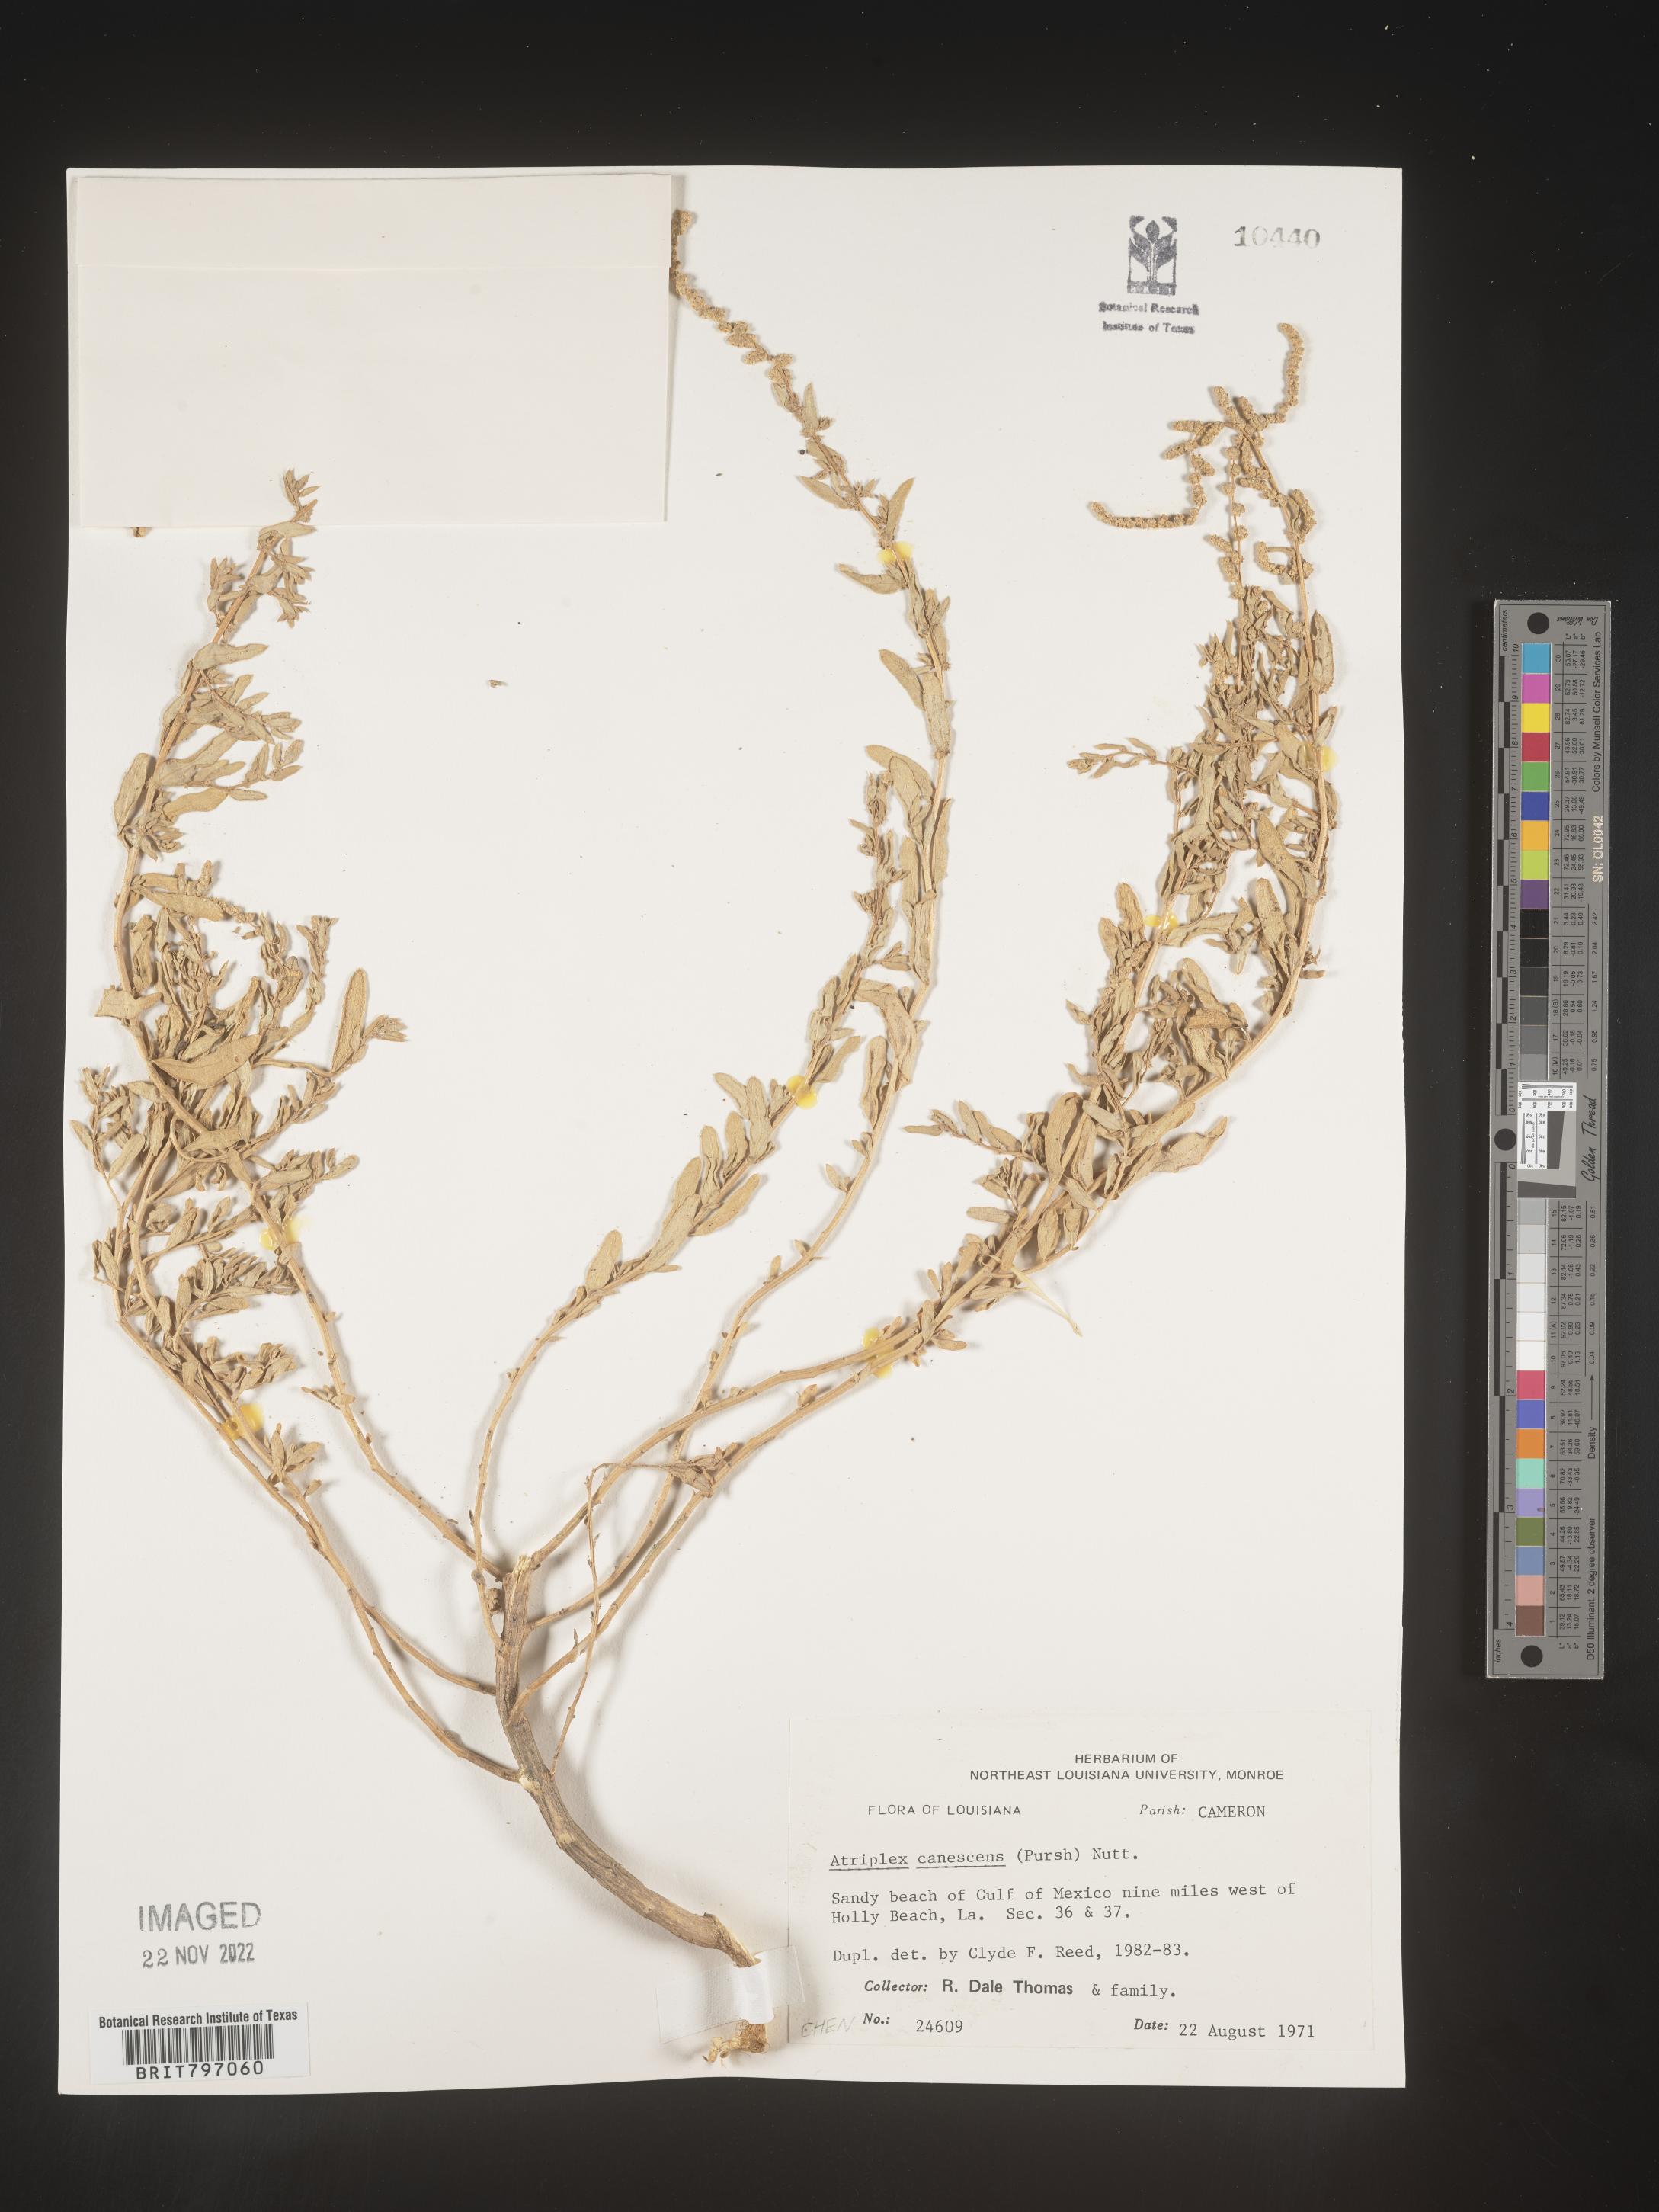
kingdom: Plantae
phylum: Tracheophyta
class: Magnoliopsida
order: Caryophyllales
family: Amaranthaceae
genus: Atriplex
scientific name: Atriplex canescens
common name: Four-wing saltbush
